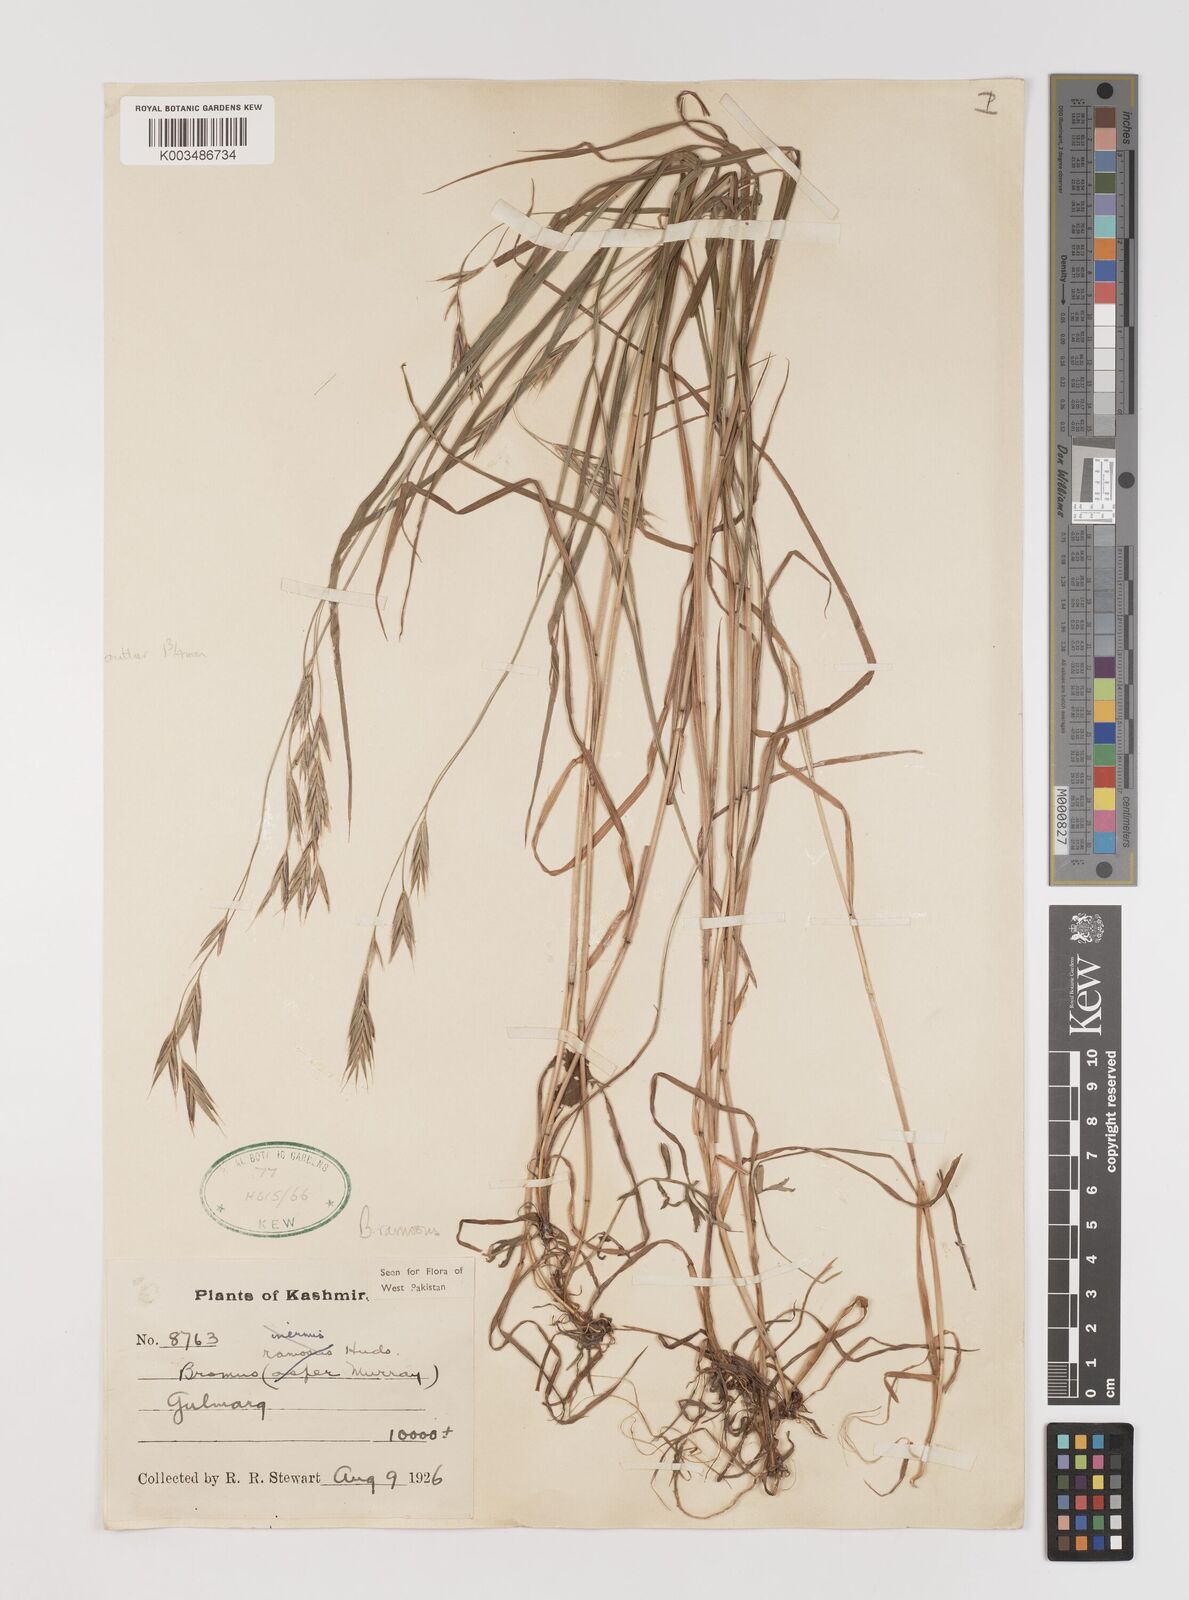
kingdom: Plantae
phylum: Tracheophyta
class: Liliopsida
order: Poales
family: Poaceae
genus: Brachypodium
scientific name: Brachypodium retusum
